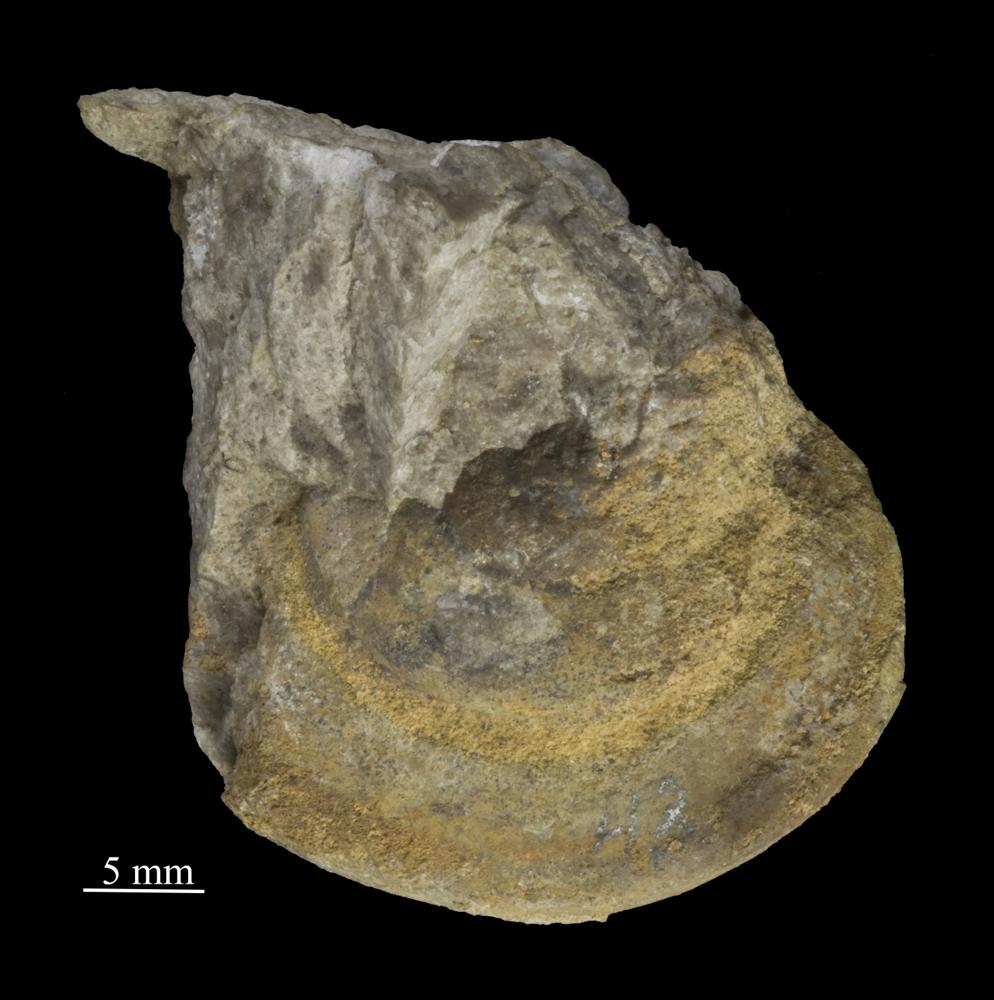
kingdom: Animalia
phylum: Mollusca
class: Gastropoda
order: Pleurotomariida
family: Eotomariidae
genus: Eotomaria
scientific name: Eotomaria Pleurotomaria notabilis
